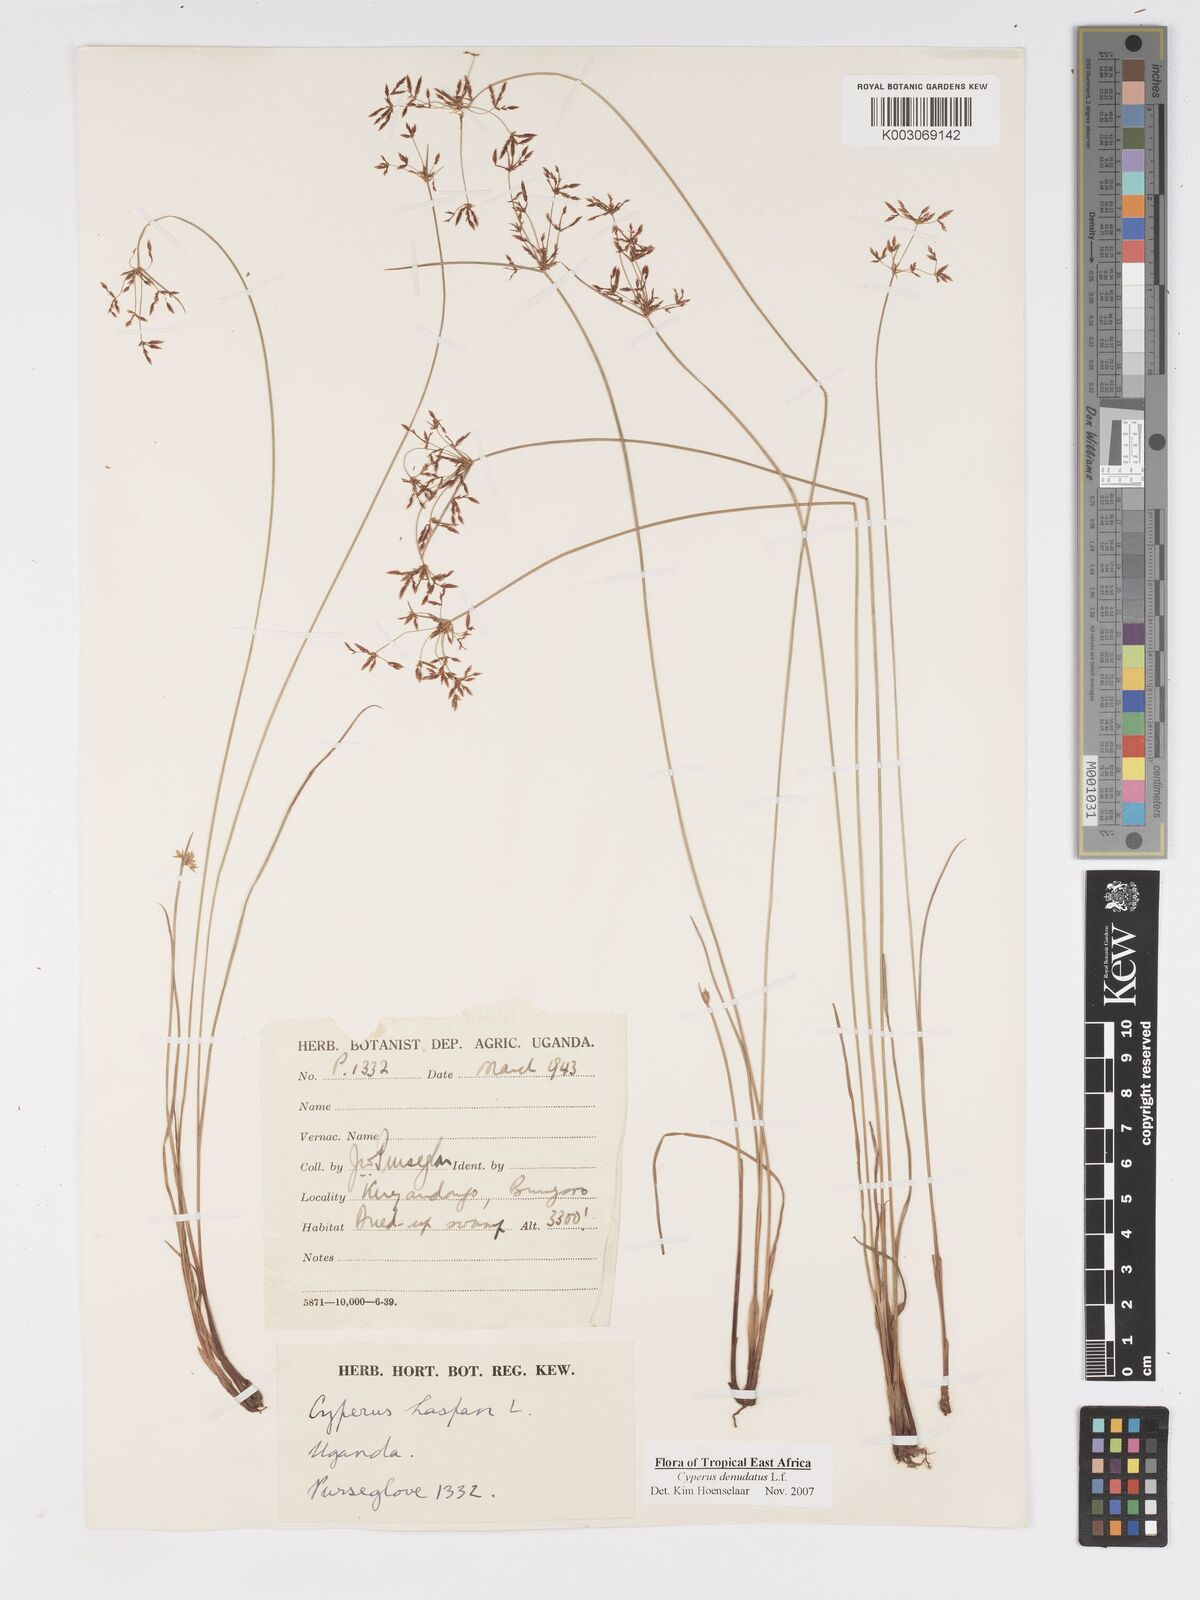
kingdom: Plantae
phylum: Tracheophyta
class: Liliopsida
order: Poales
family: Cyperaceae
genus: Cyperus
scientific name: Cyperus denudatus
